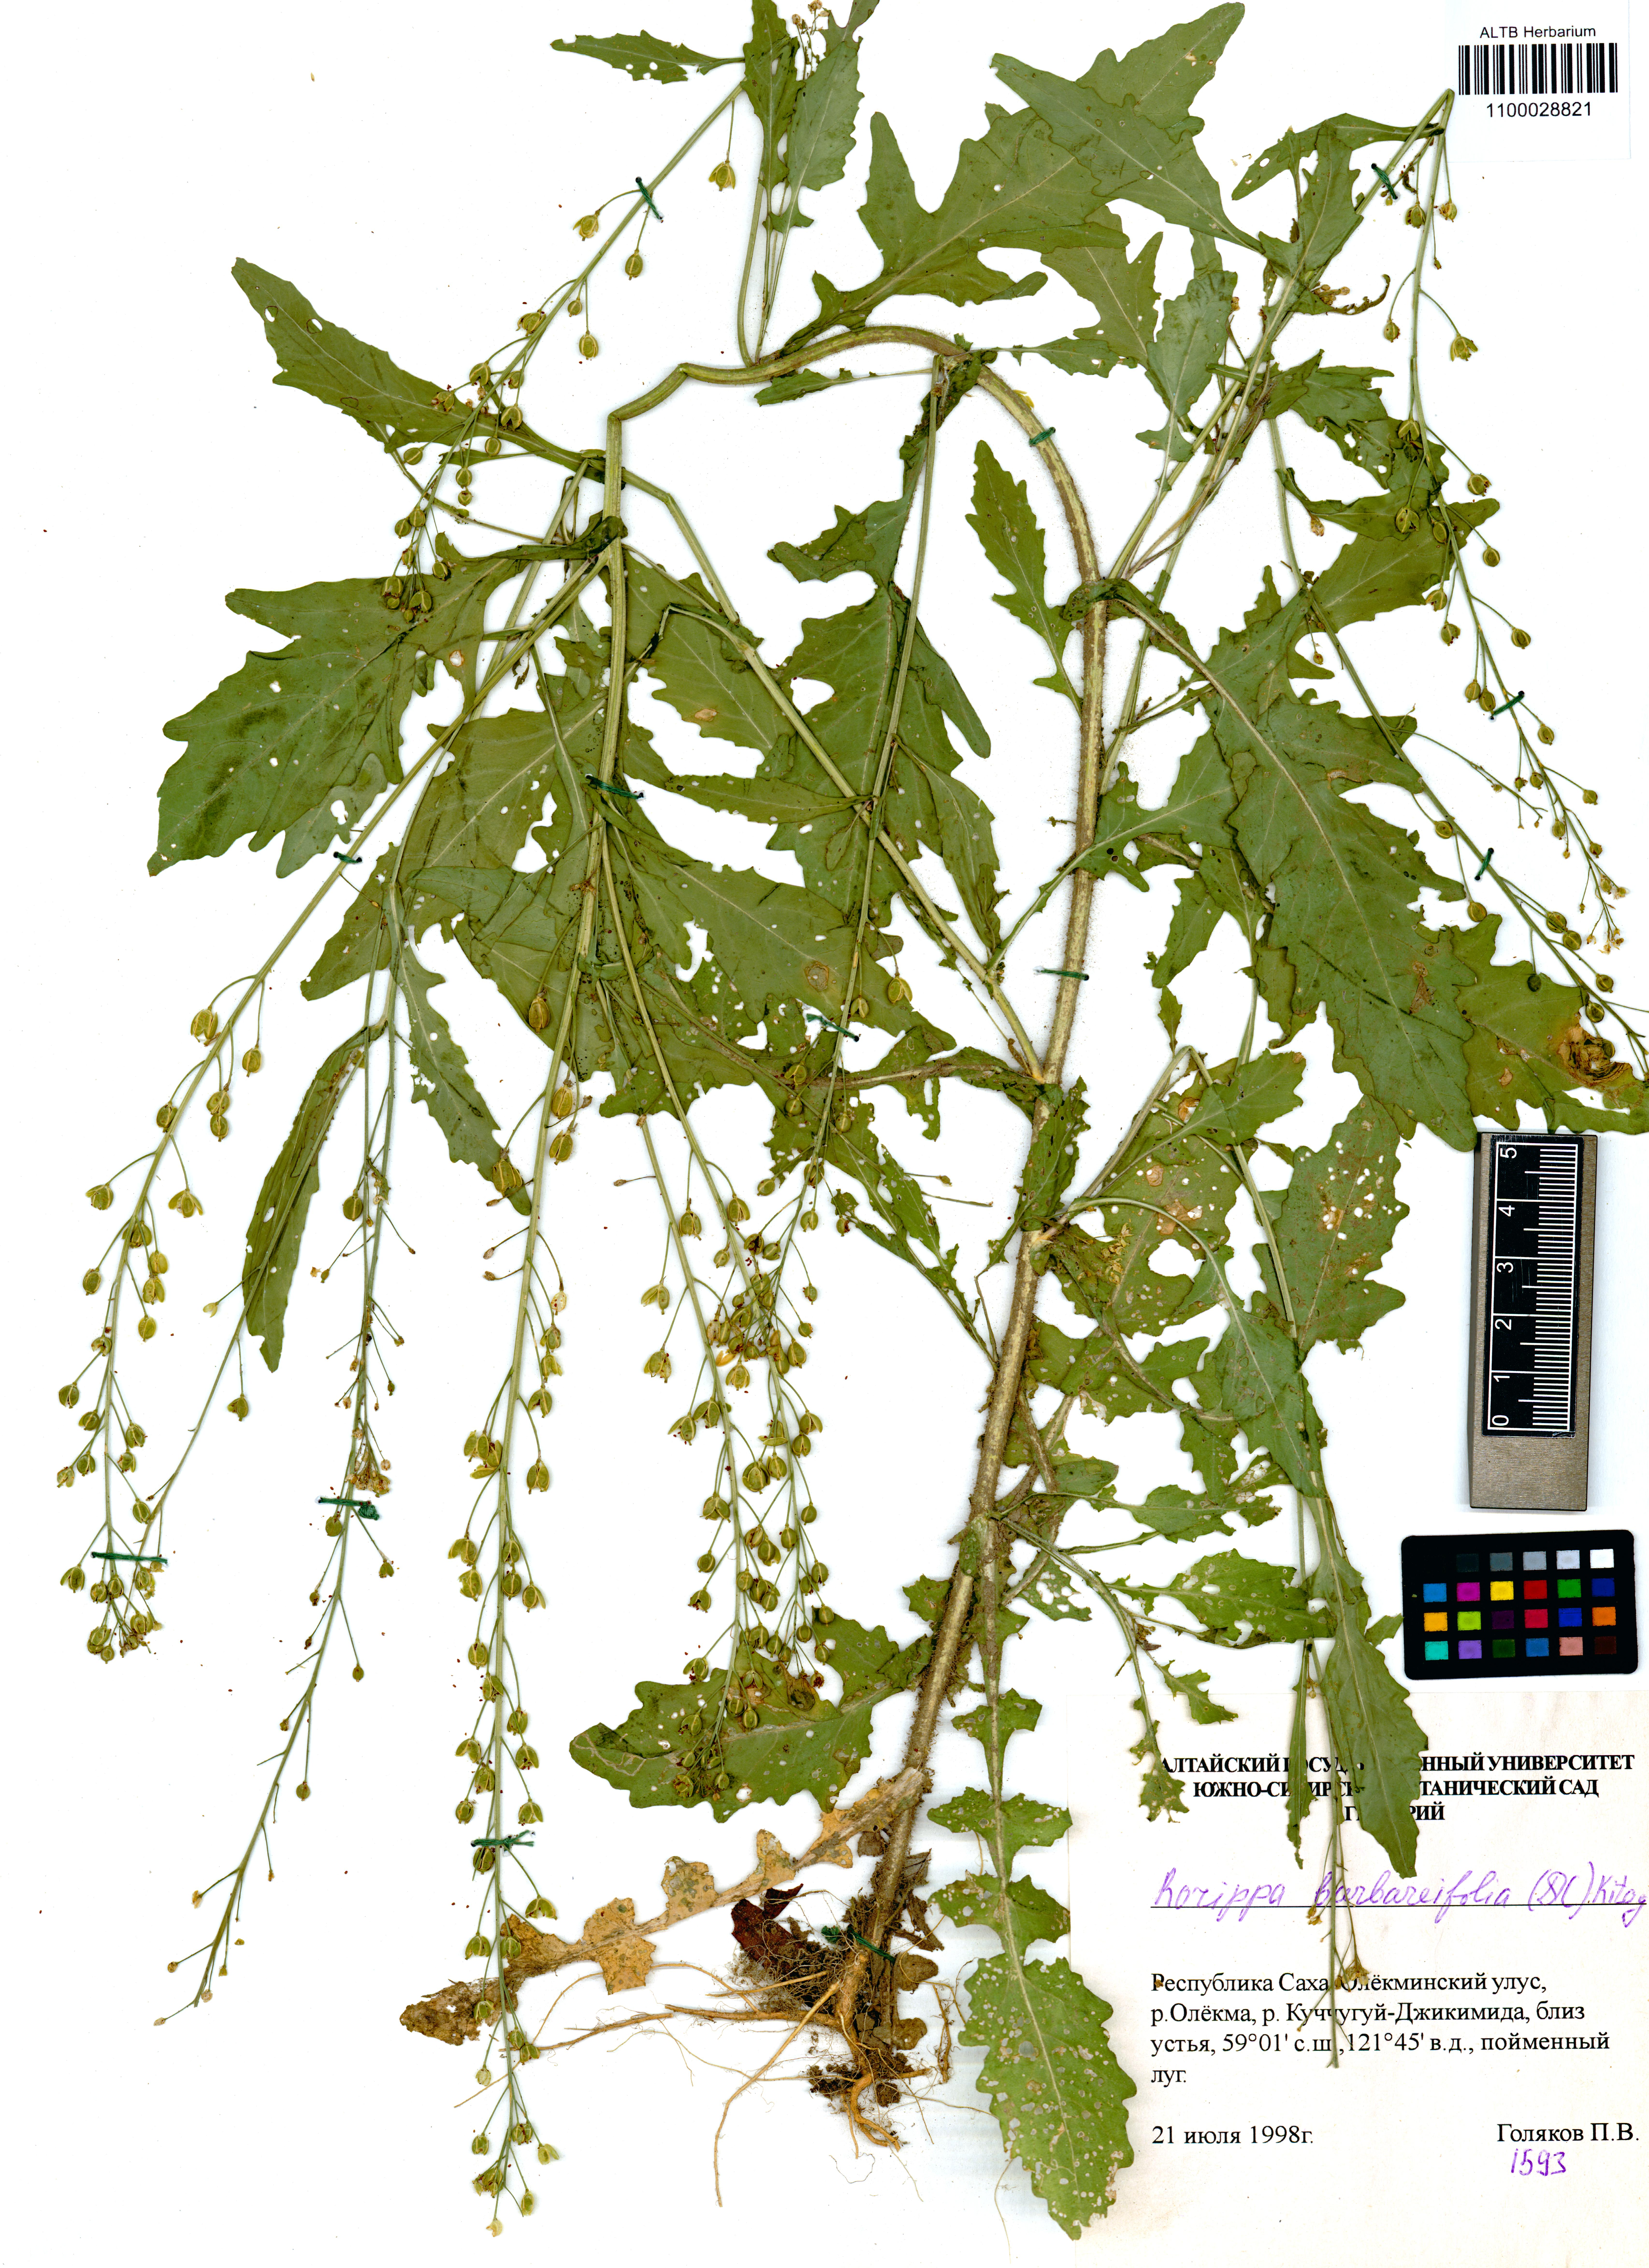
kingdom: Plantae
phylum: Tracheophyta
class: Magnoliopsida
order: Brassicales
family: Brassicaceae
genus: Rorippa
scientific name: Rorippa barbaraefolia
